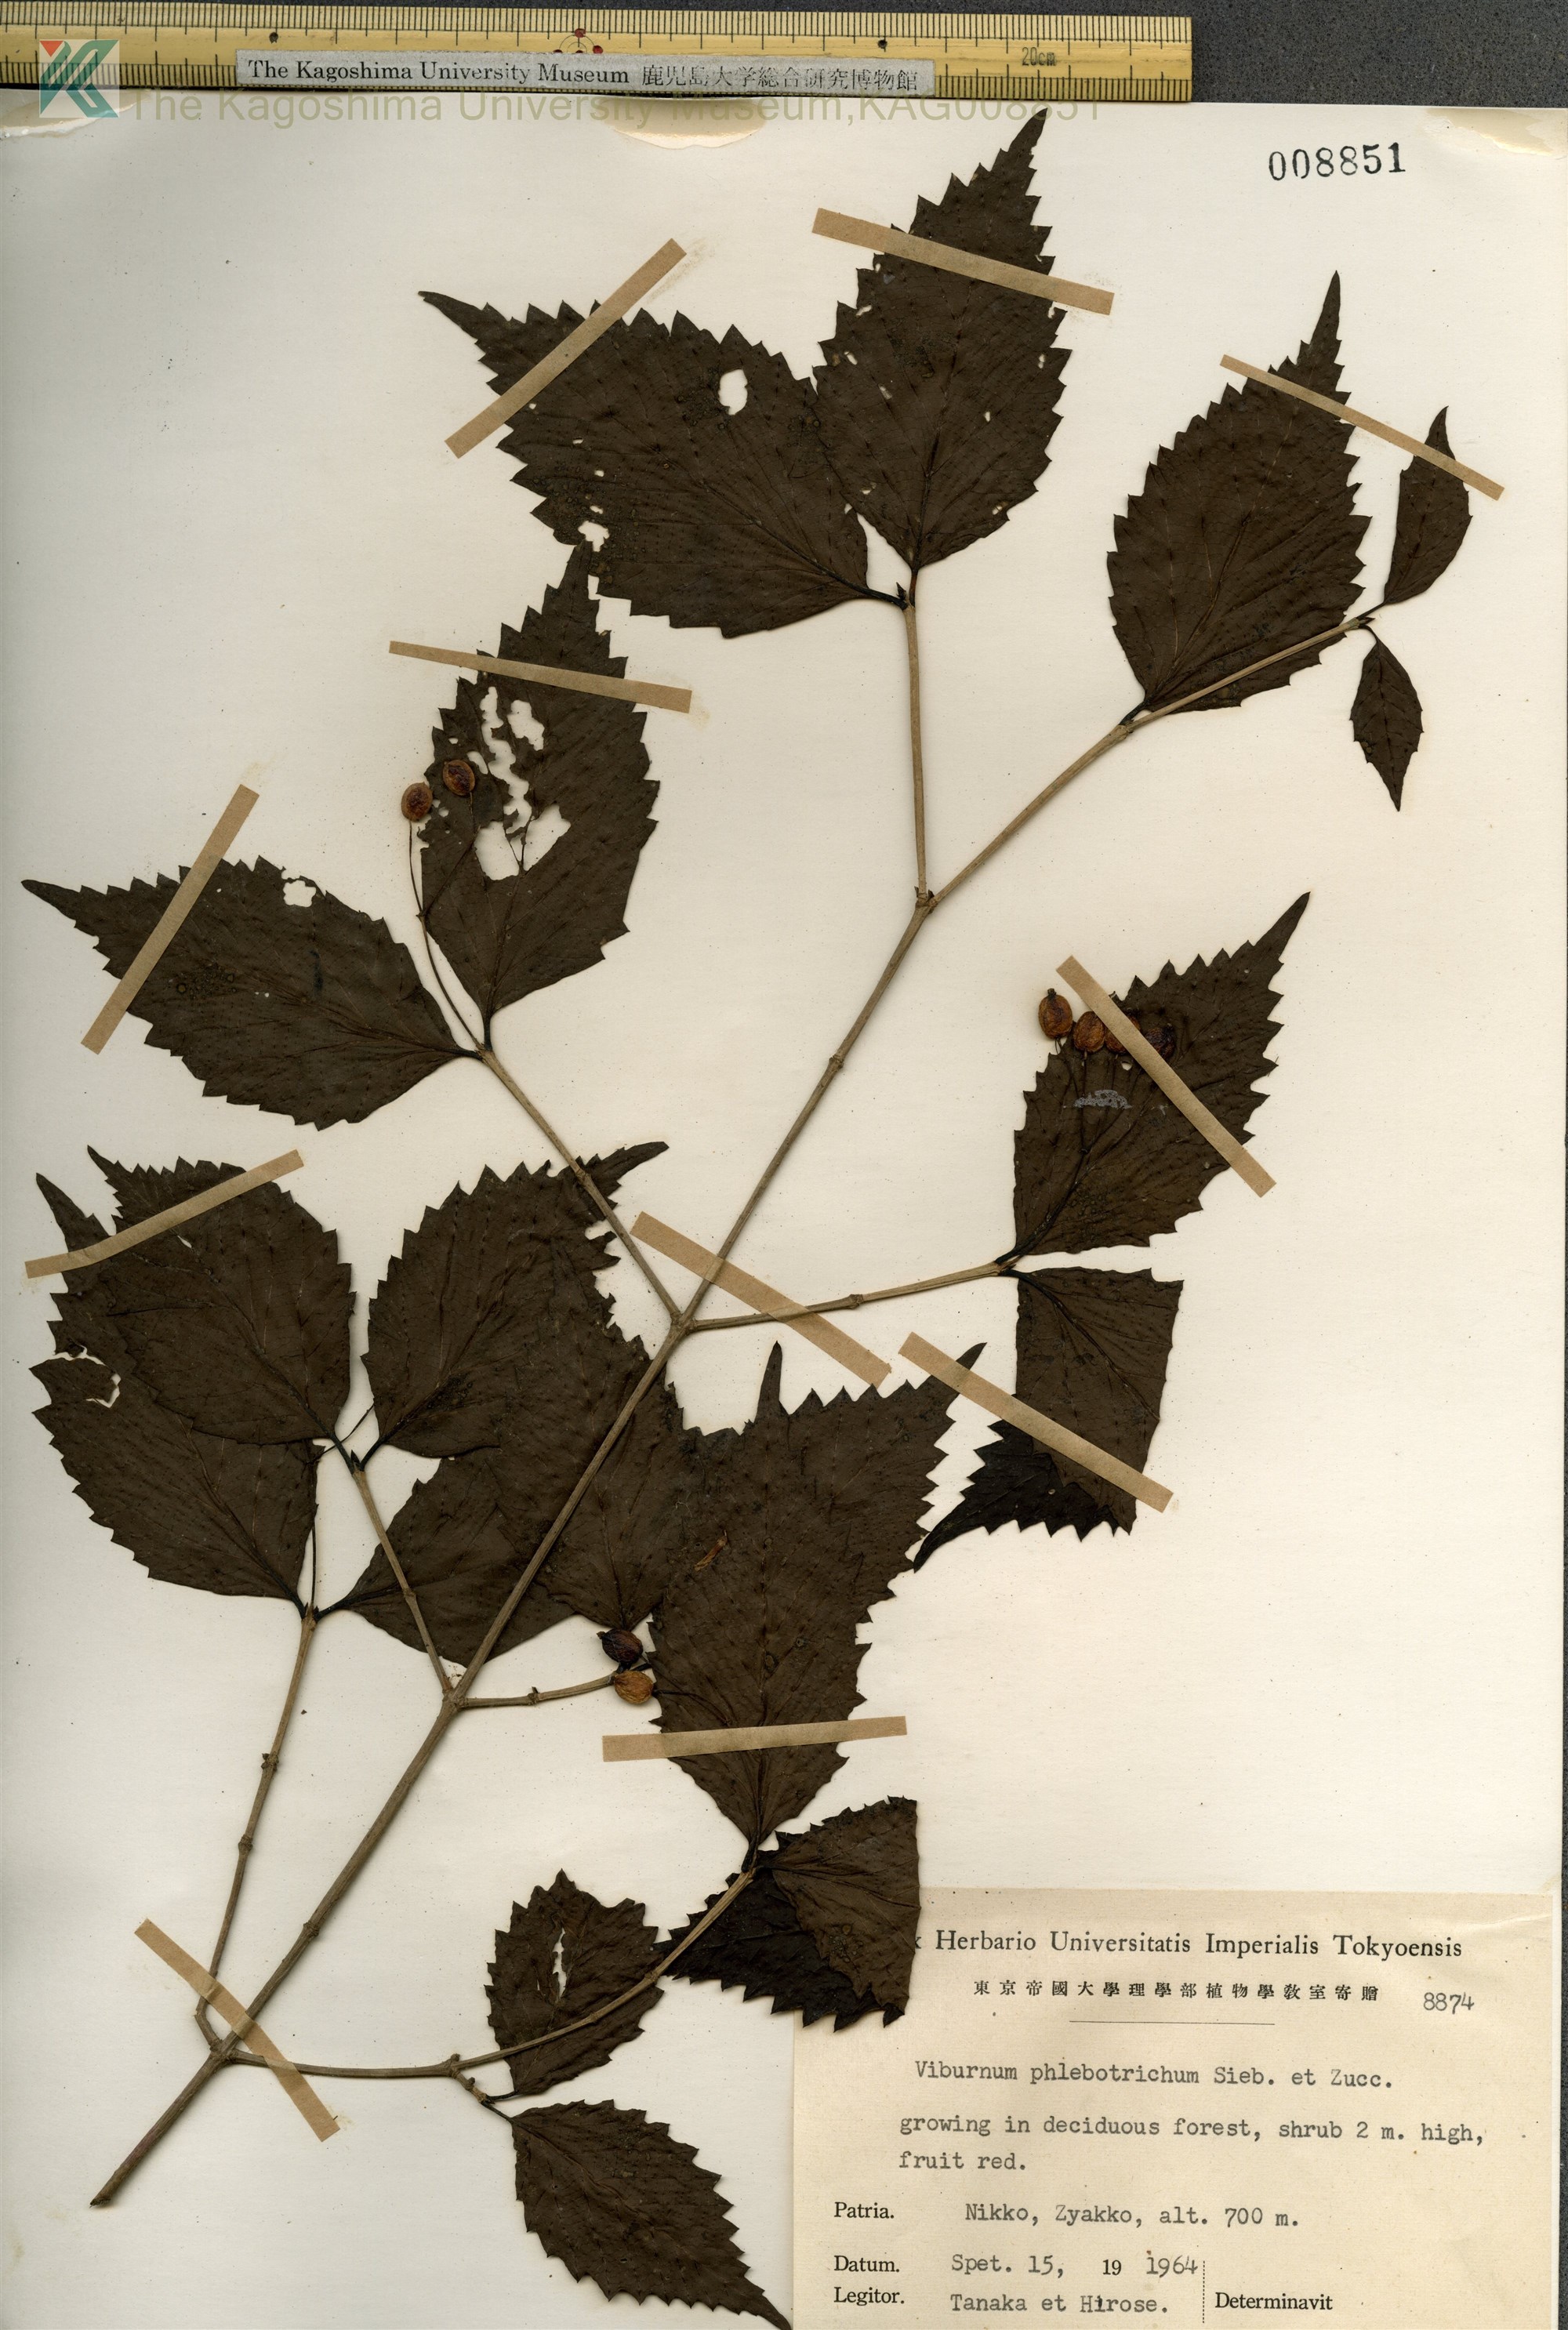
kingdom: Plantae
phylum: Tracheophyta
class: Magnoliopsida
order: Dipsacales
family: Viburnaceae
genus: Viburnum
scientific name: Viburnum phlebotrichum
